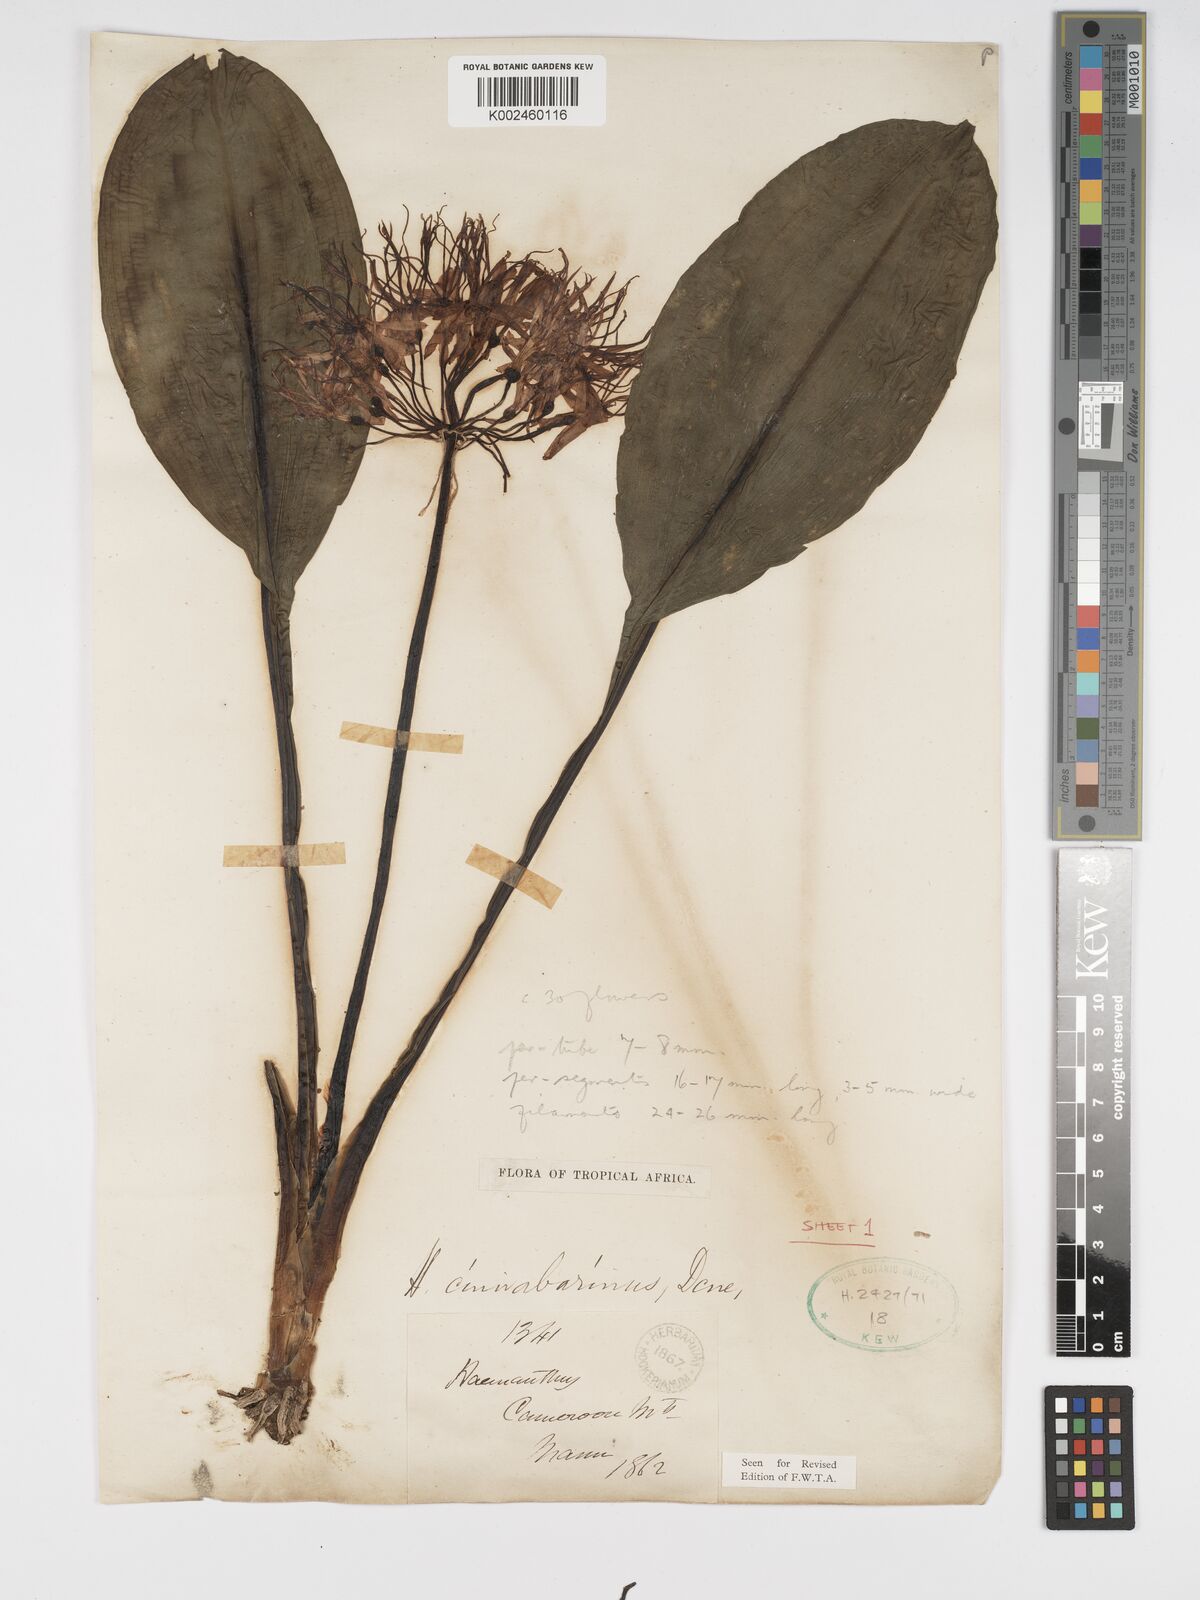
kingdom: Plantae
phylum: Tracheophyta
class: Liliopsida
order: Asparagales
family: Amaryllidaceae
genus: Scadoxus
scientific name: Scadoxus cinnabarinus
